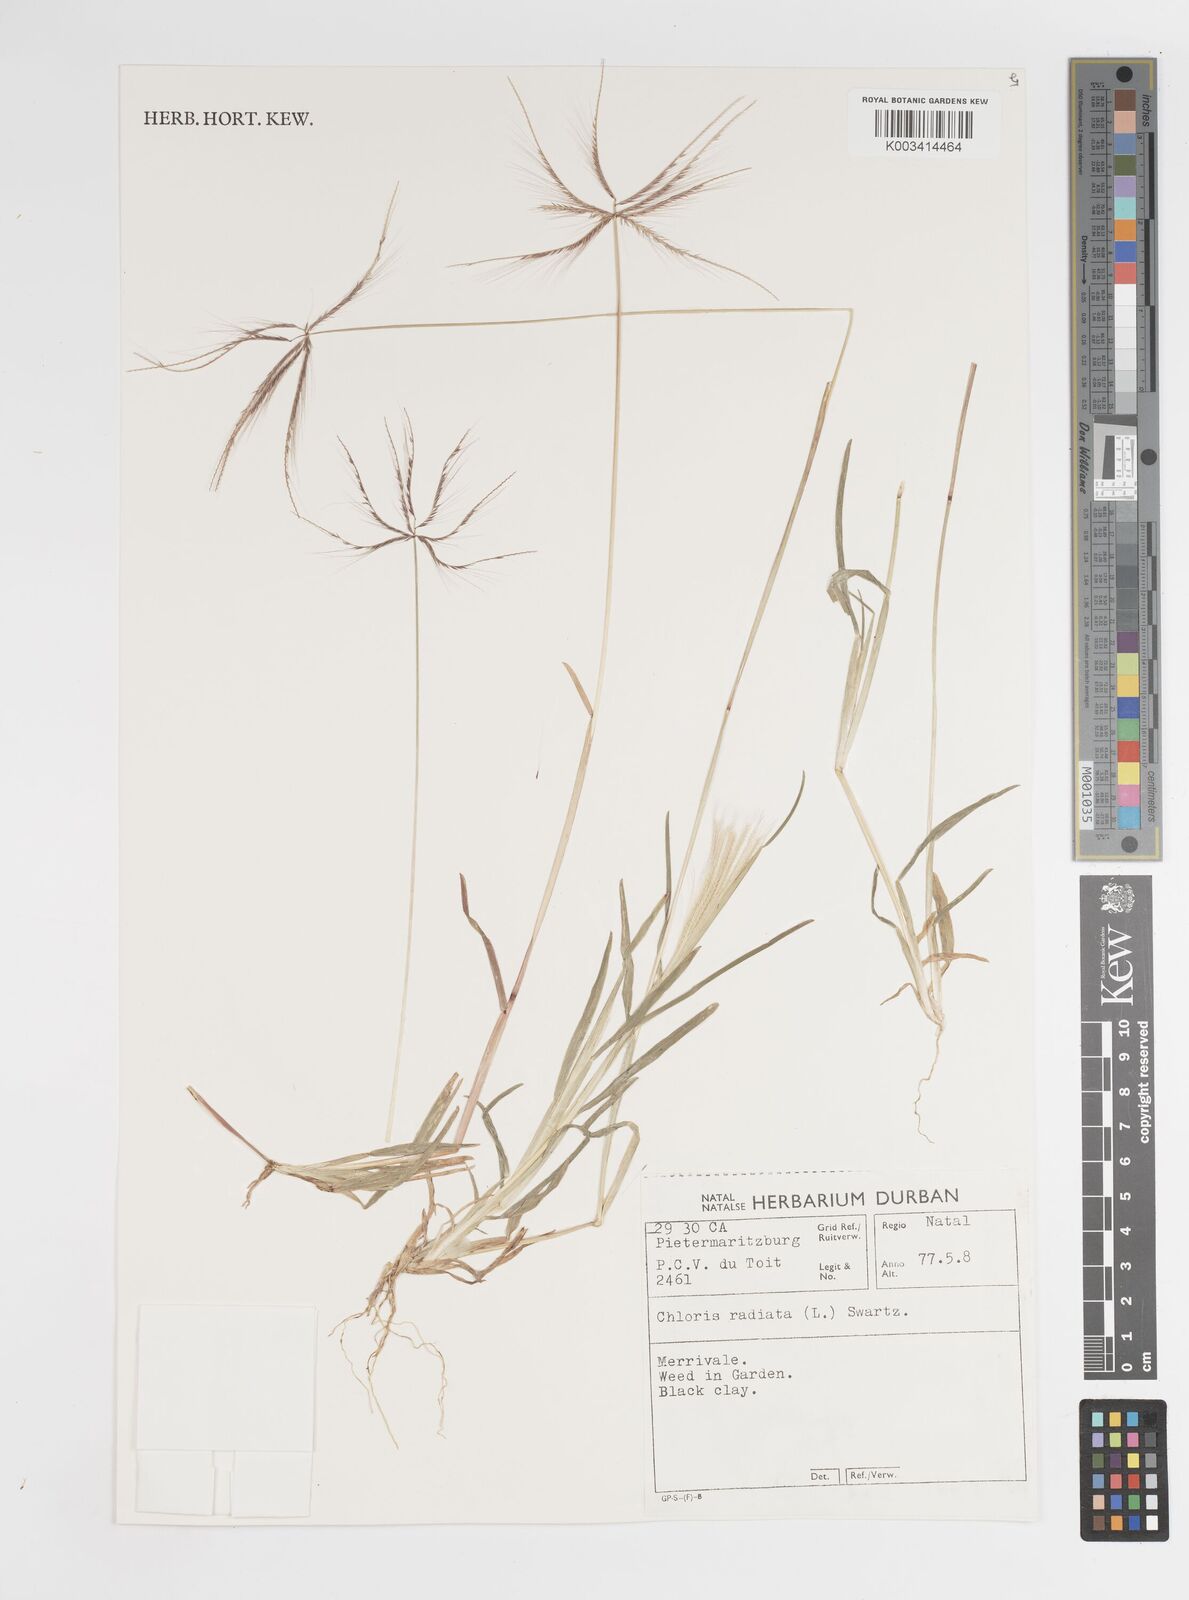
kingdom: Plantae
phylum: Tracheophyta
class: Liliopsida
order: Poales
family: Poaceae
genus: Chloris
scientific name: Chloris radiata
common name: Radiate fingergrass
